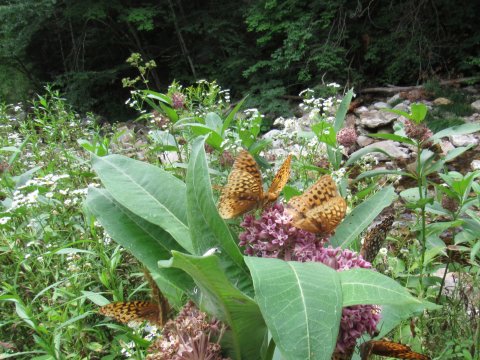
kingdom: Animalia
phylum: Arthropoda
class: Insecta
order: Lepidoptera
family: Nymphalidae
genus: Speyeria
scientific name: Speyeria cybele
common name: Great Spangled Fritillary
